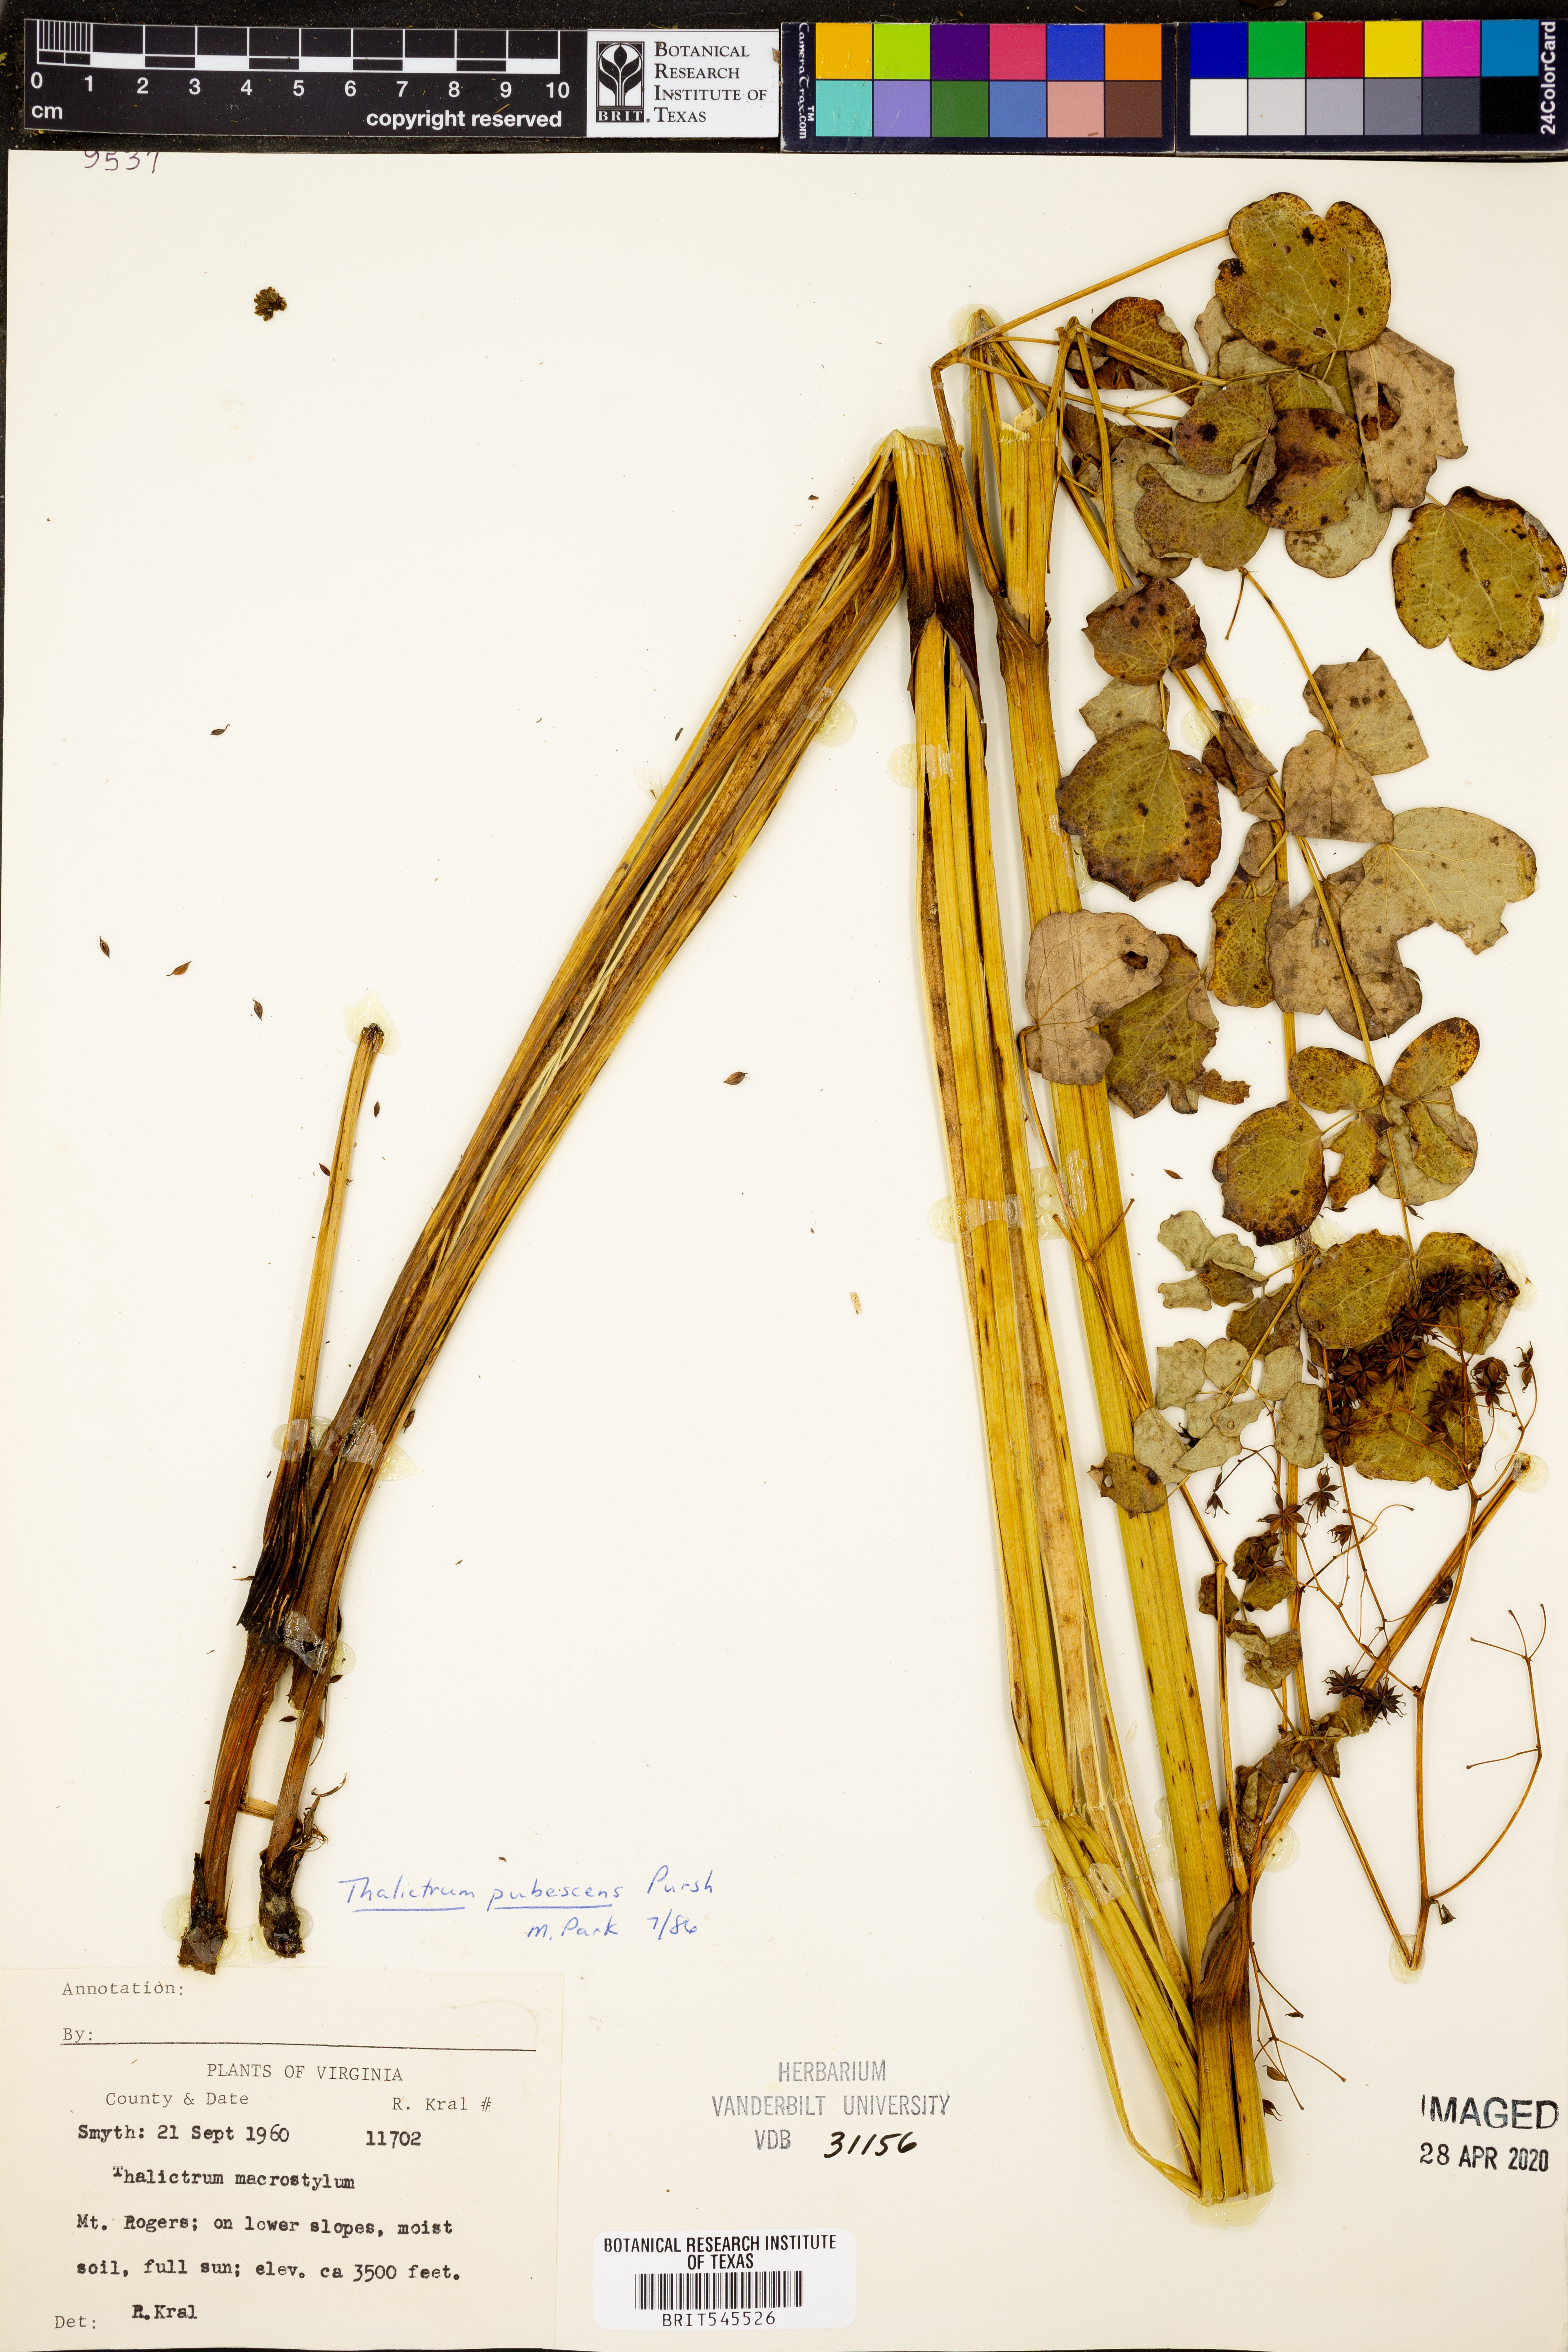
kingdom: Plantae
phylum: Tracheophyta
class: Magnoliopsida
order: Ranunculales
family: Ranunculaceae
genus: Thalictrum
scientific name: Thalictrum pubescens
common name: King-of-the-meadow
